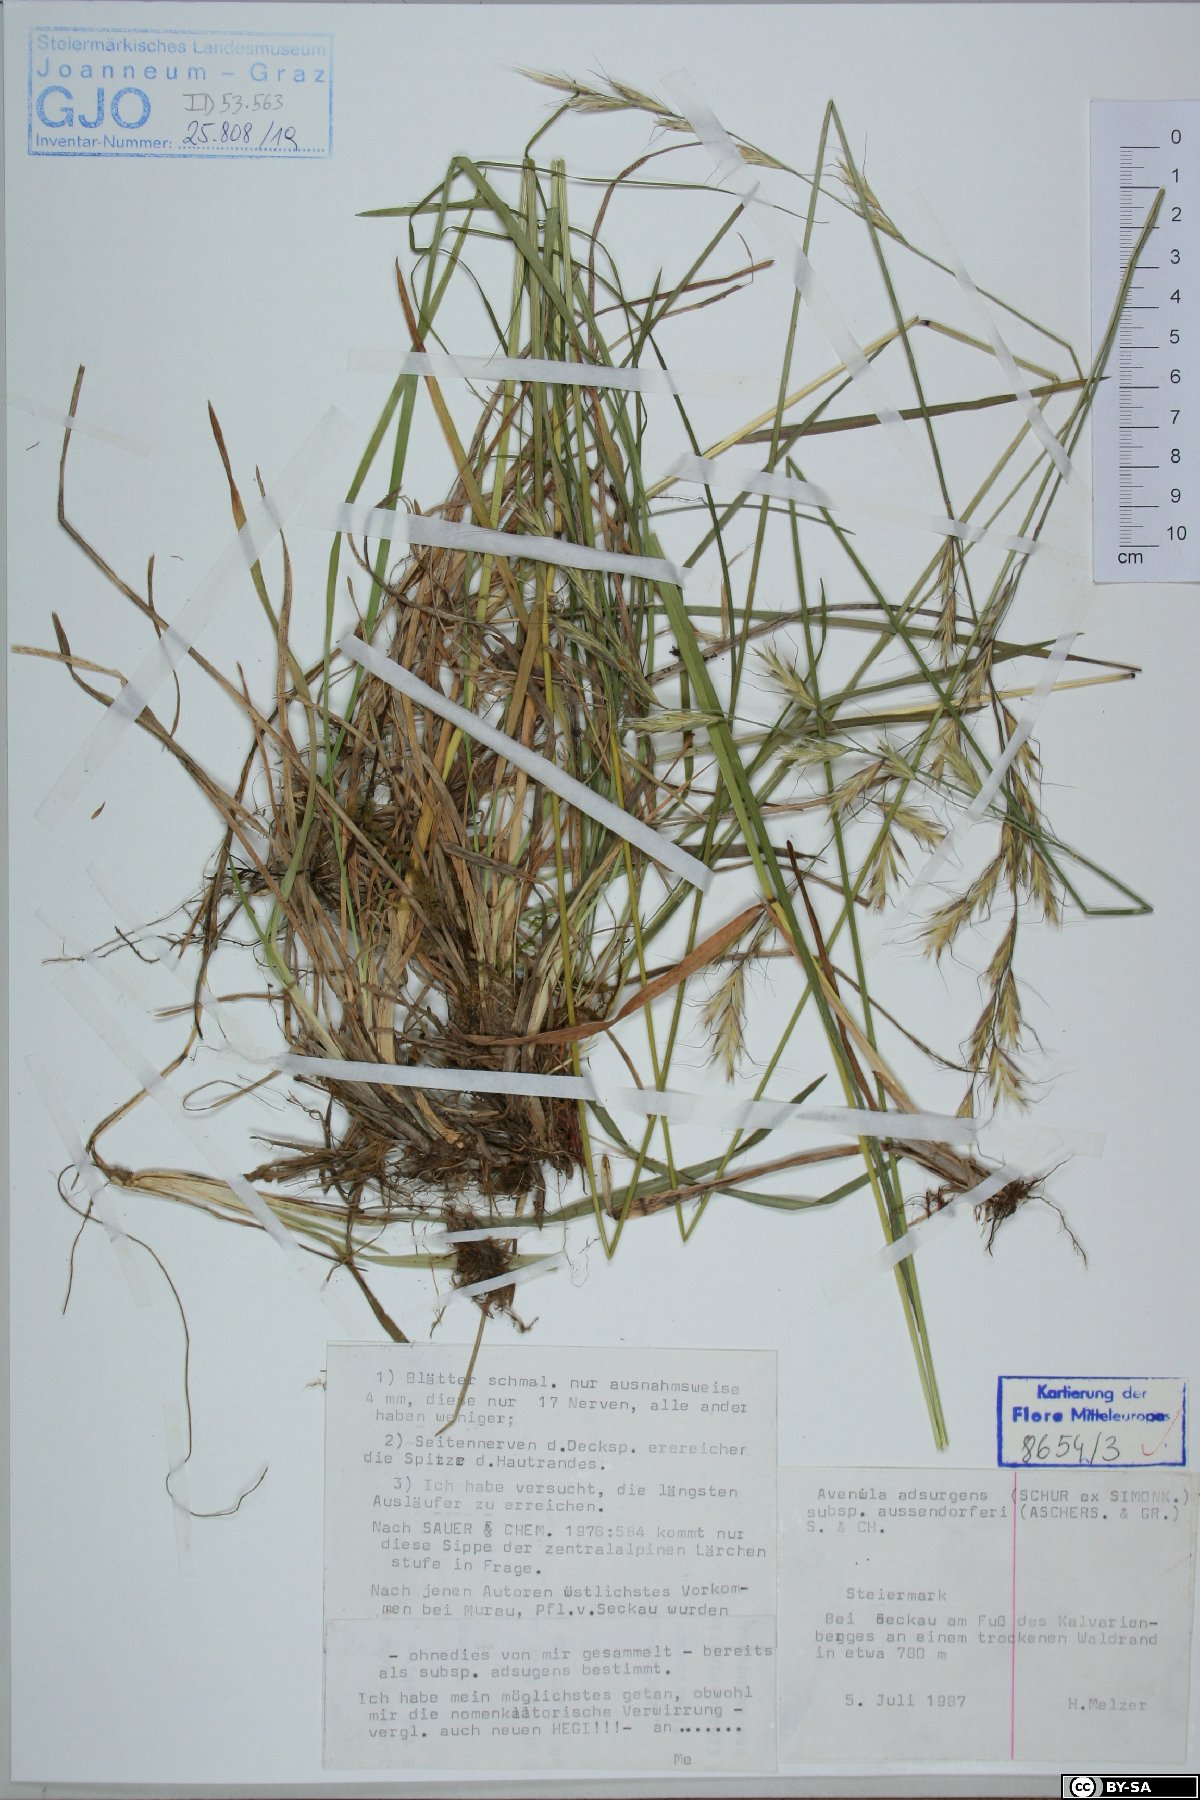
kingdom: Plantae
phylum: Tracheophyta
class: Liliopsida
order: Poales
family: Poaceae
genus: Helictochloa
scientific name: Helictochloa praeusta
